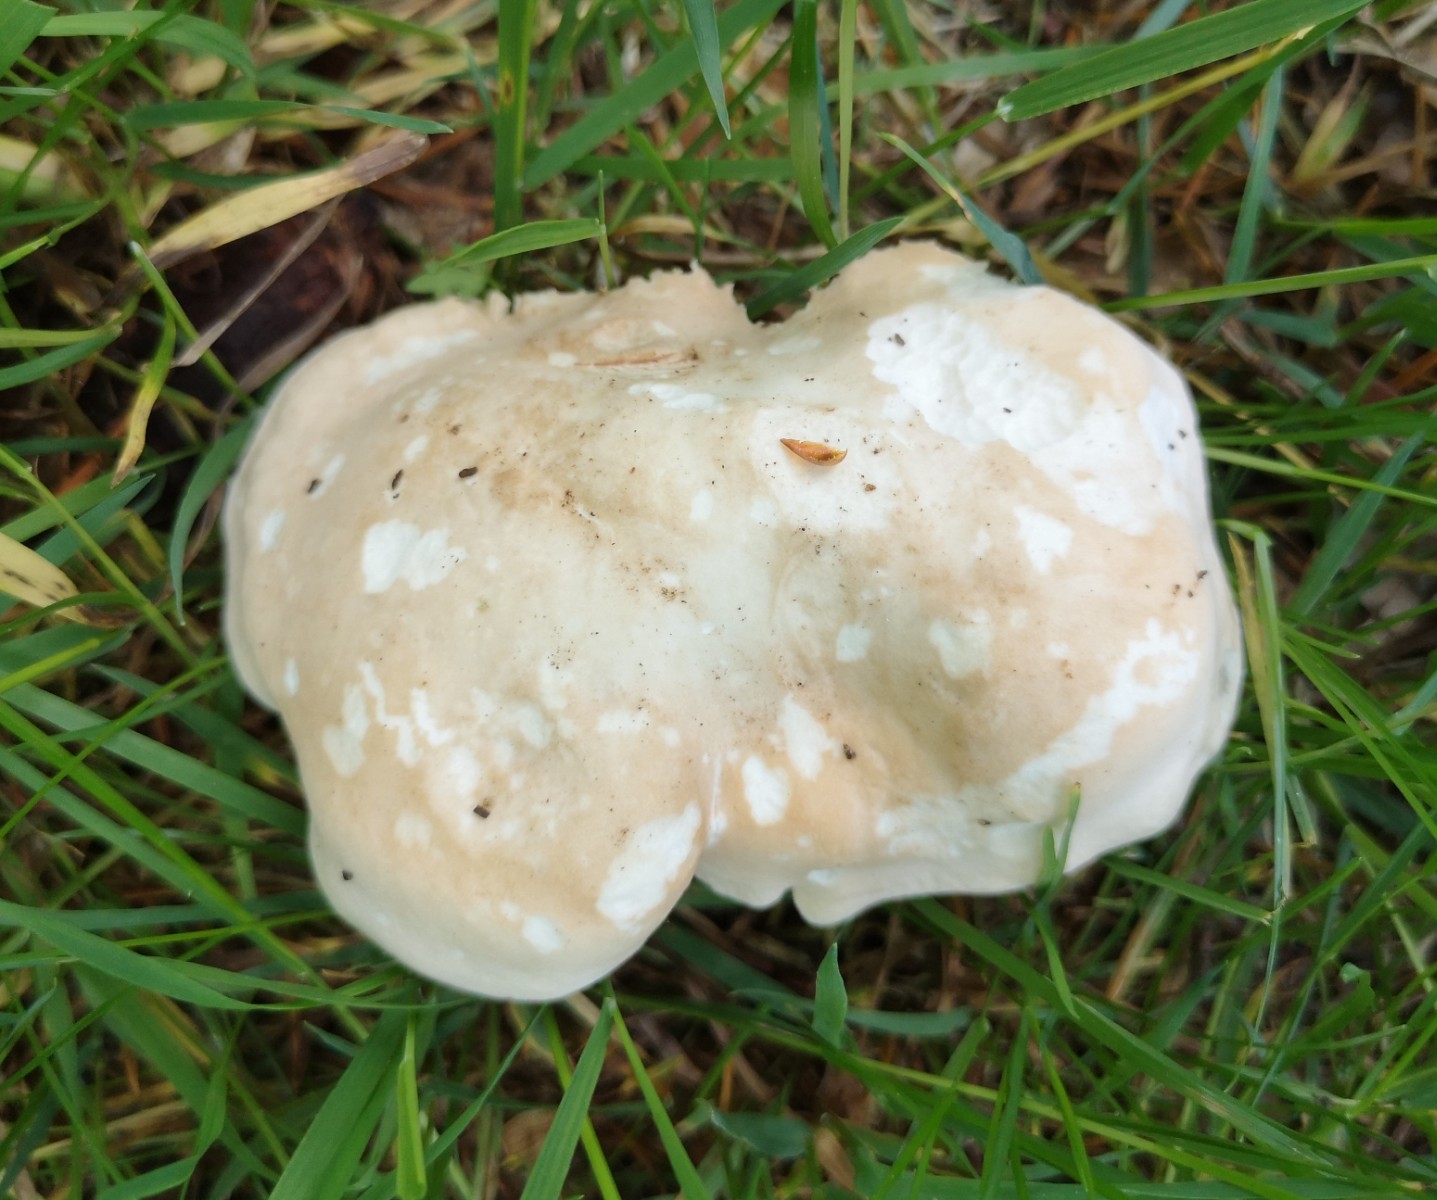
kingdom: Fungi
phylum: Basidiomycota
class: Agaricomycetes
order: Agaricales
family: Lyophyllaceae
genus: Calocybe
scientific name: Calocybe gambosa
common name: vårmusseron
